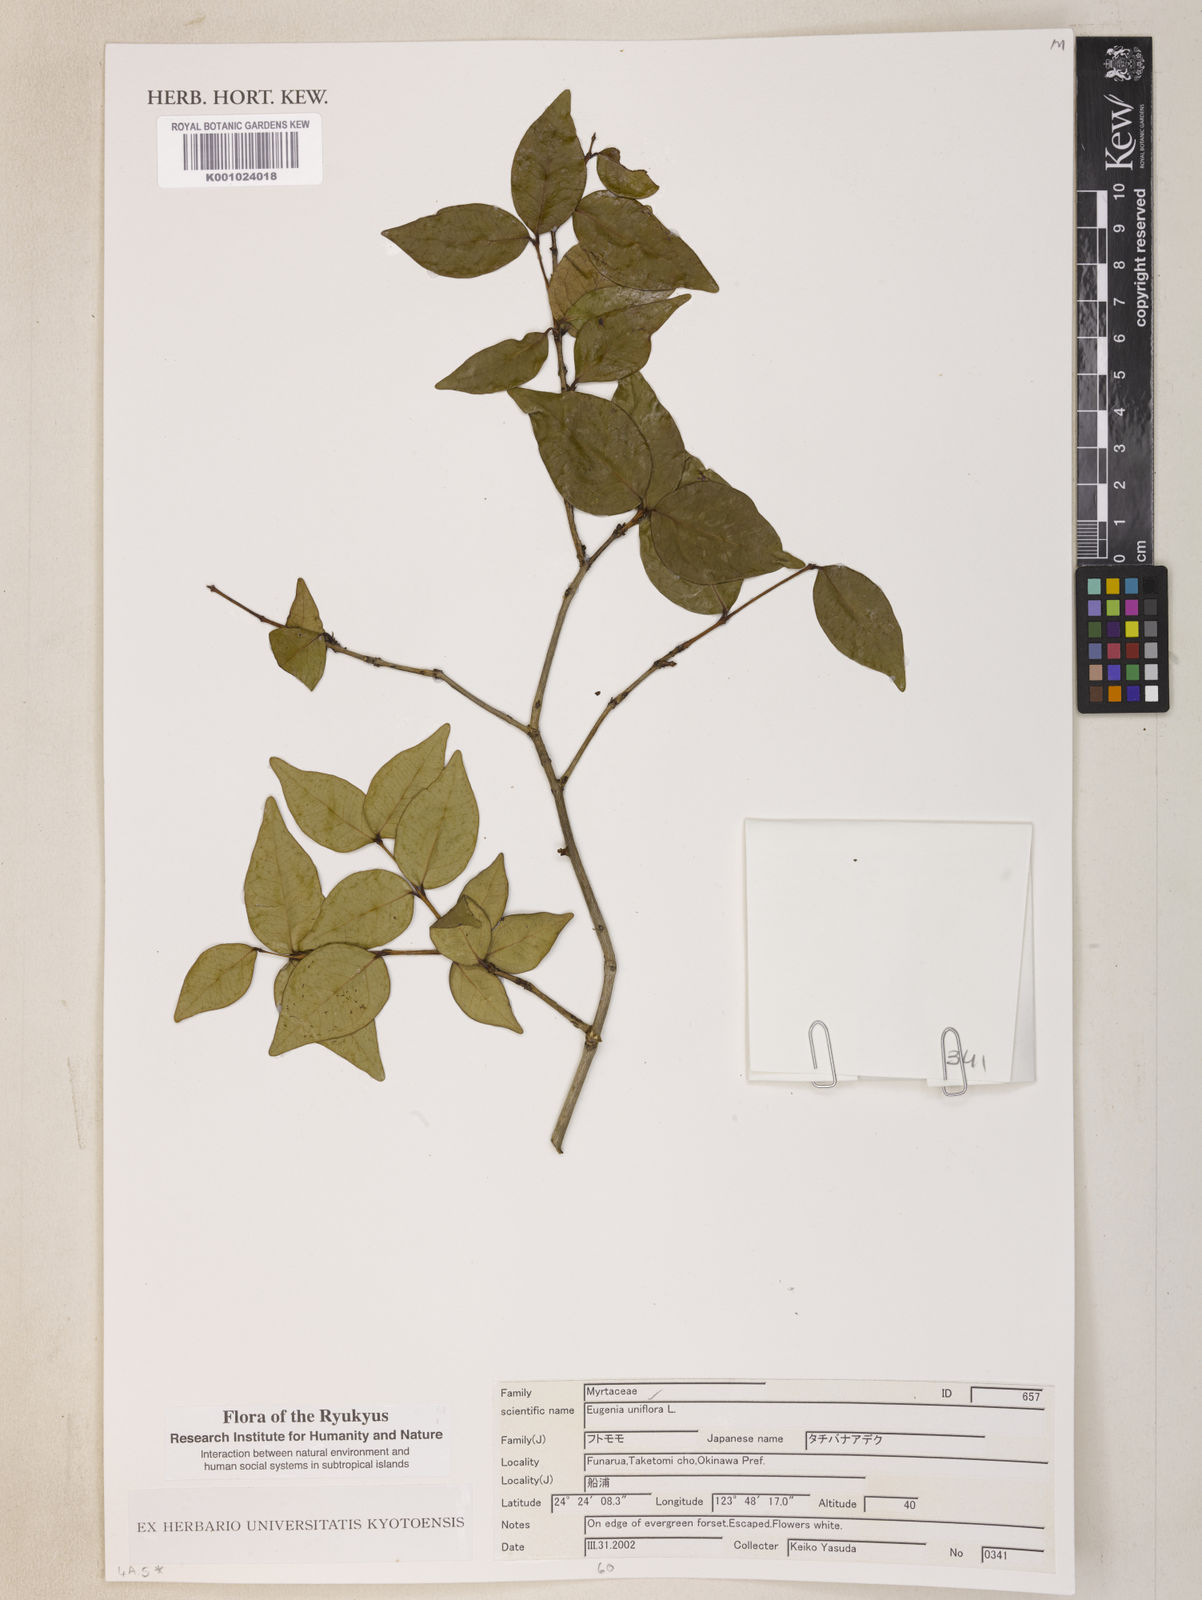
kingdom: Plantae
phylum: Tracheophyta
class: Magnoliopsida
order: Myrtales
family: Myrtaceae
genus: Eugenia
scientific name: Eugenia uniflora
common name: Surinam cherry
